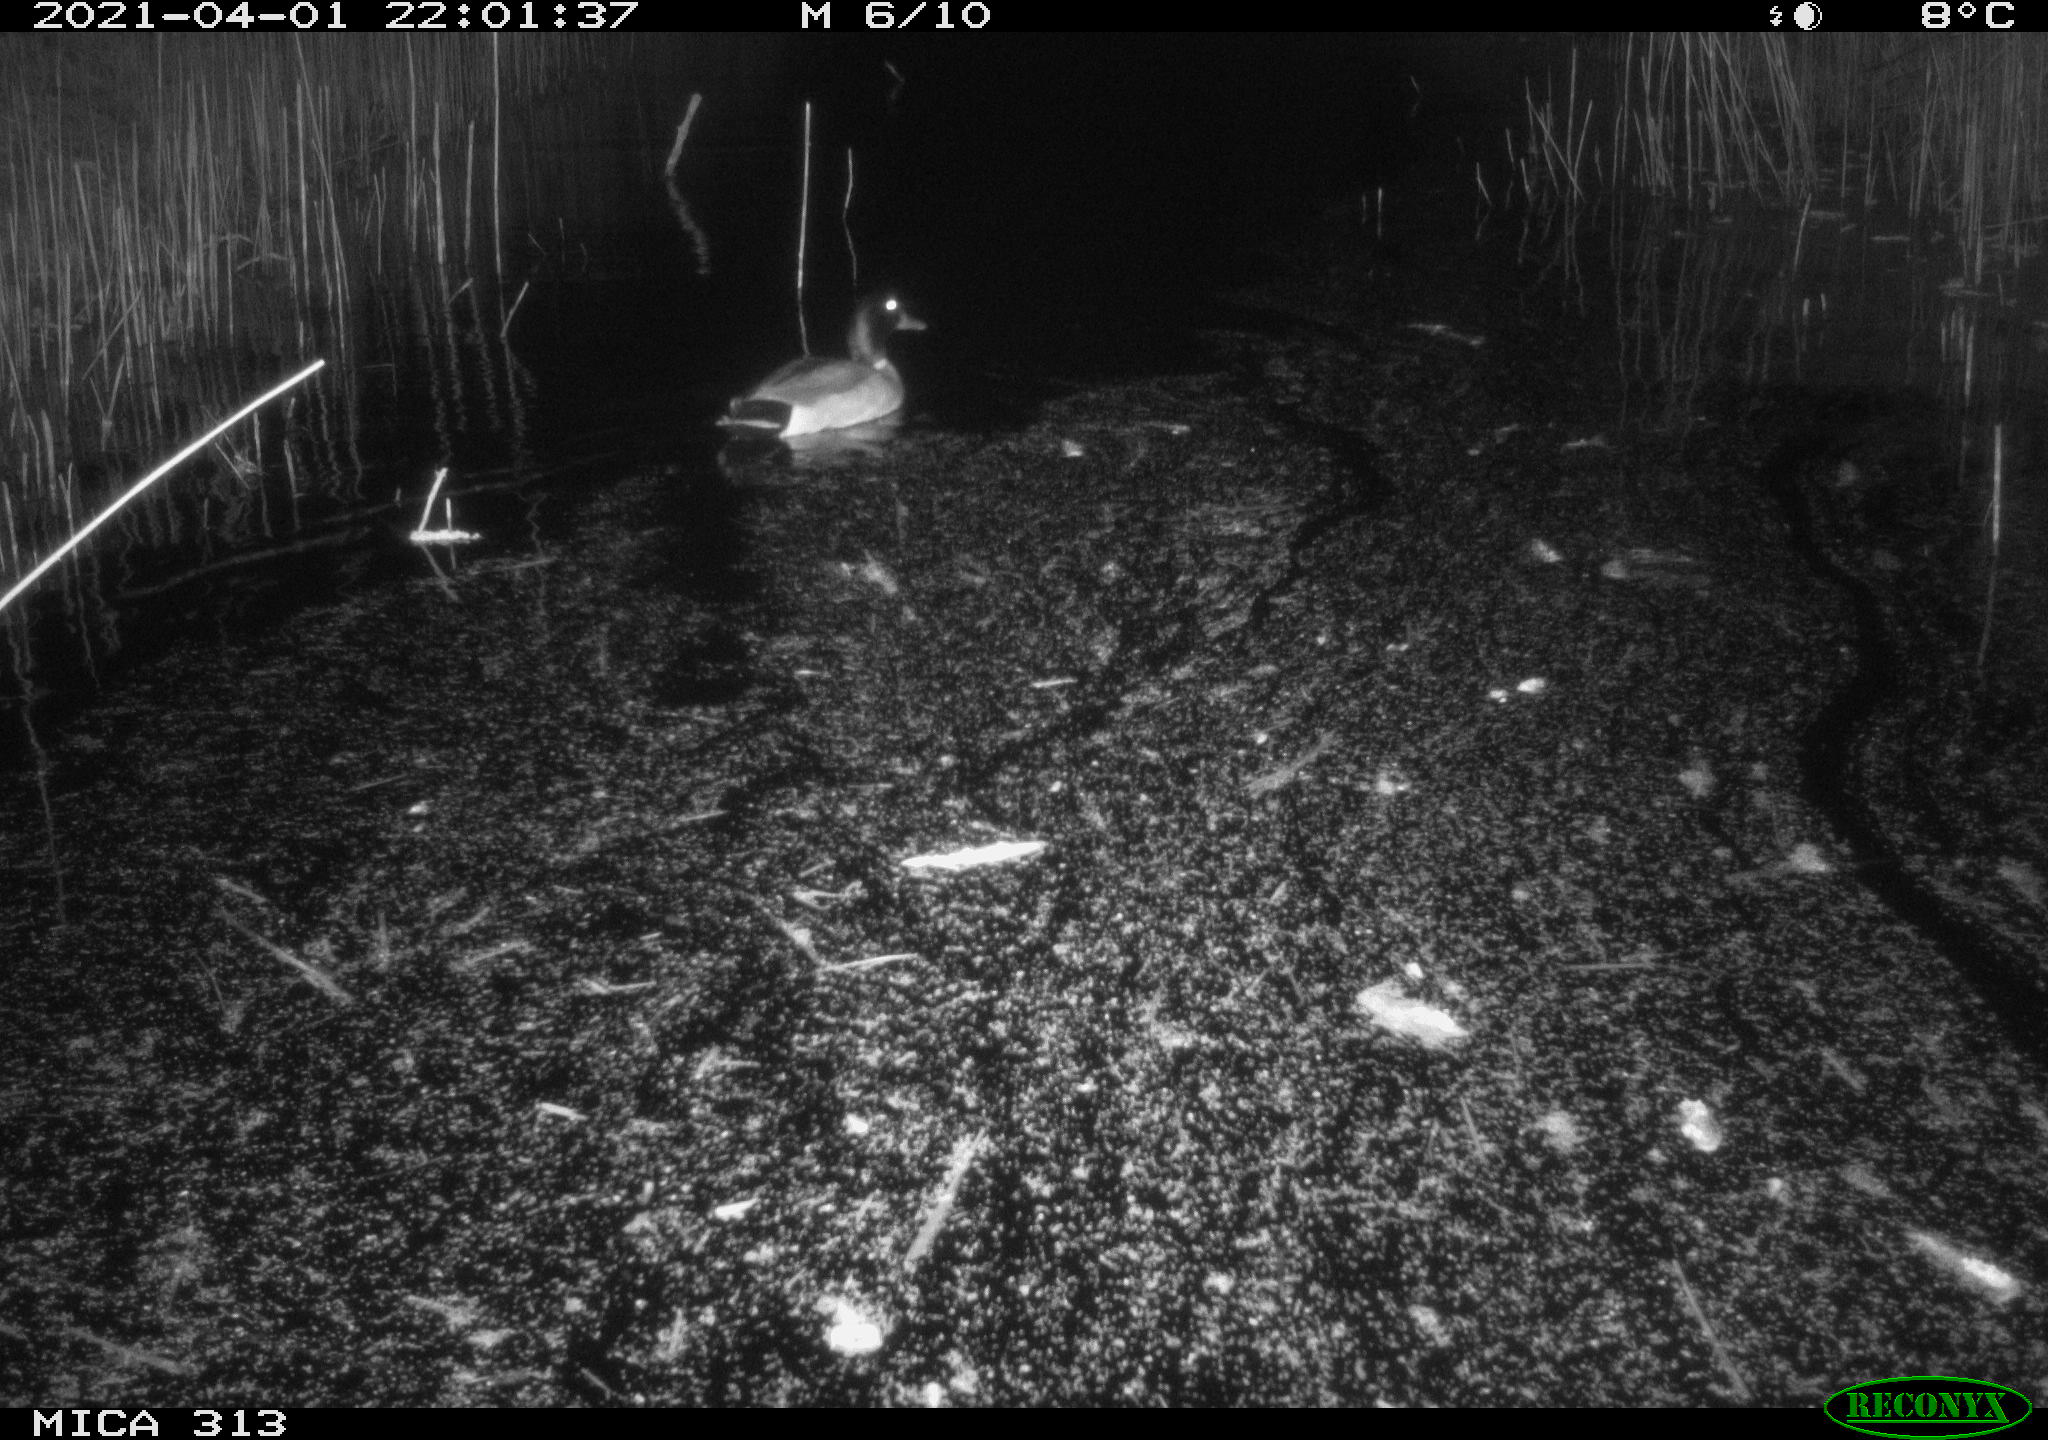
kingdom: Animalia
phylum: Chordata
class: Aves
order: Anseriformes
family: Anatidae
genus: Anas
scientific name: Anas platyrhynchos
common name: Mallard
